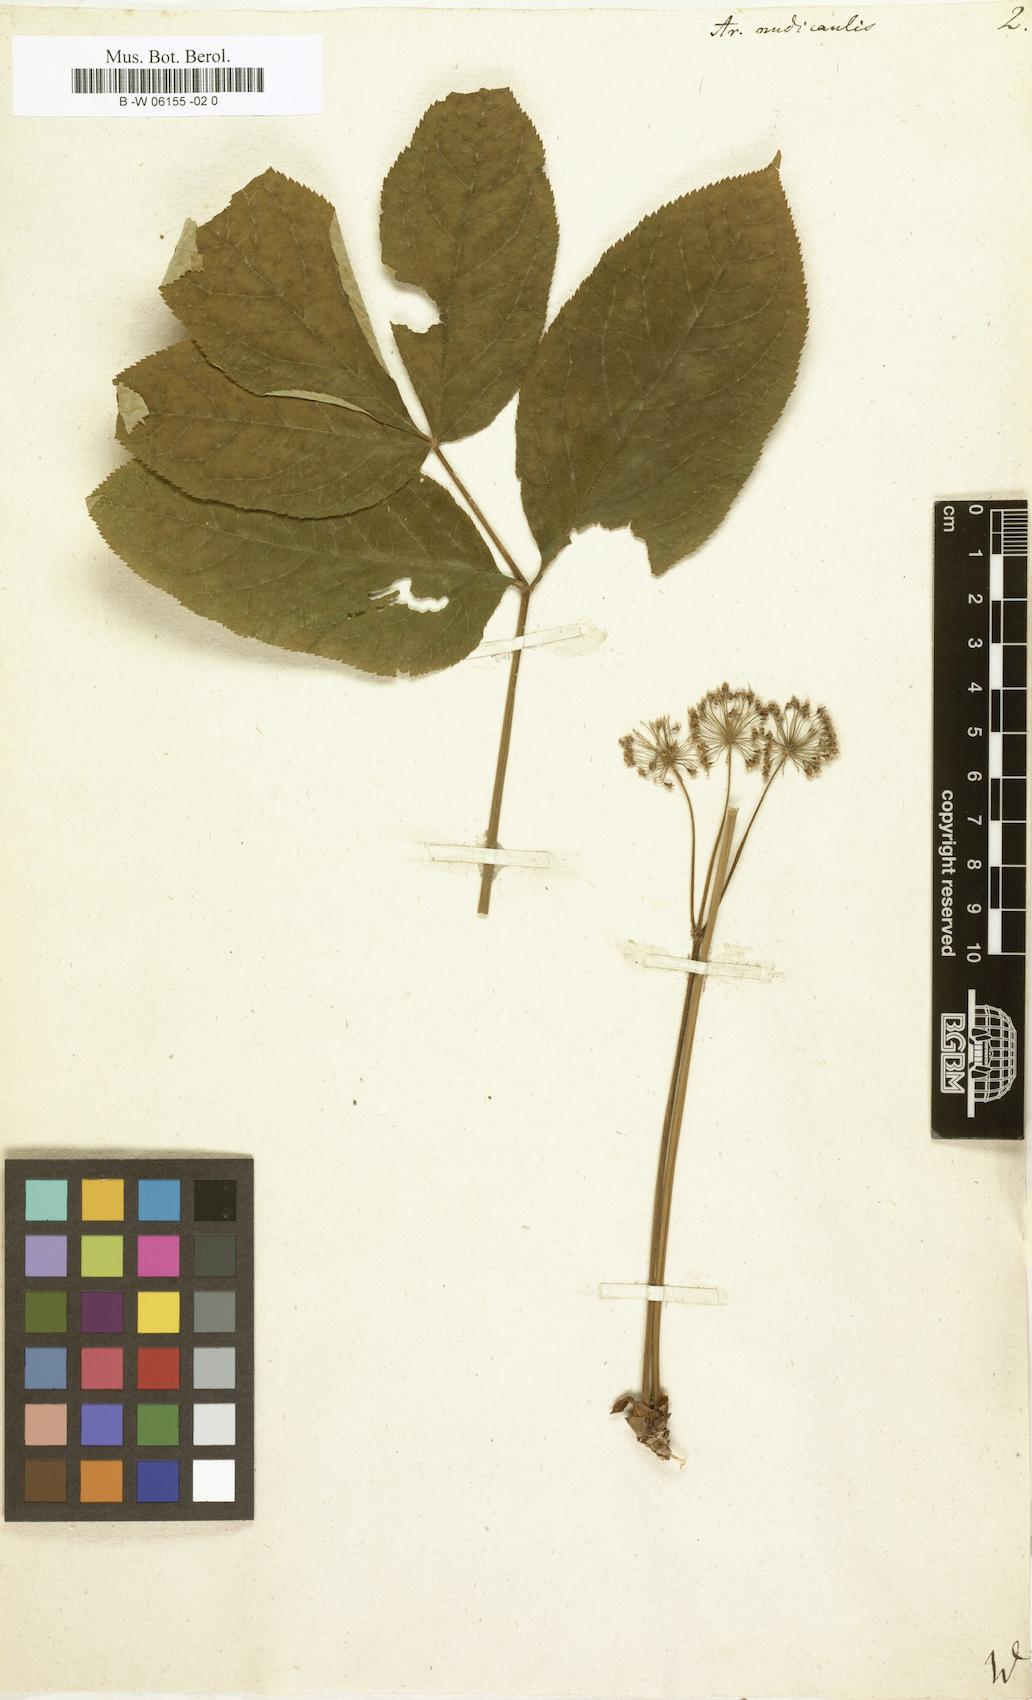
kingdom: Plantae
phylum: Tracheophyta
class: Magnoliopsida
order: Apiales
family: Araliaceae
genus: Aralia
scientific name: Aralia nudicaulis
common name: Wild sarsaparilla
